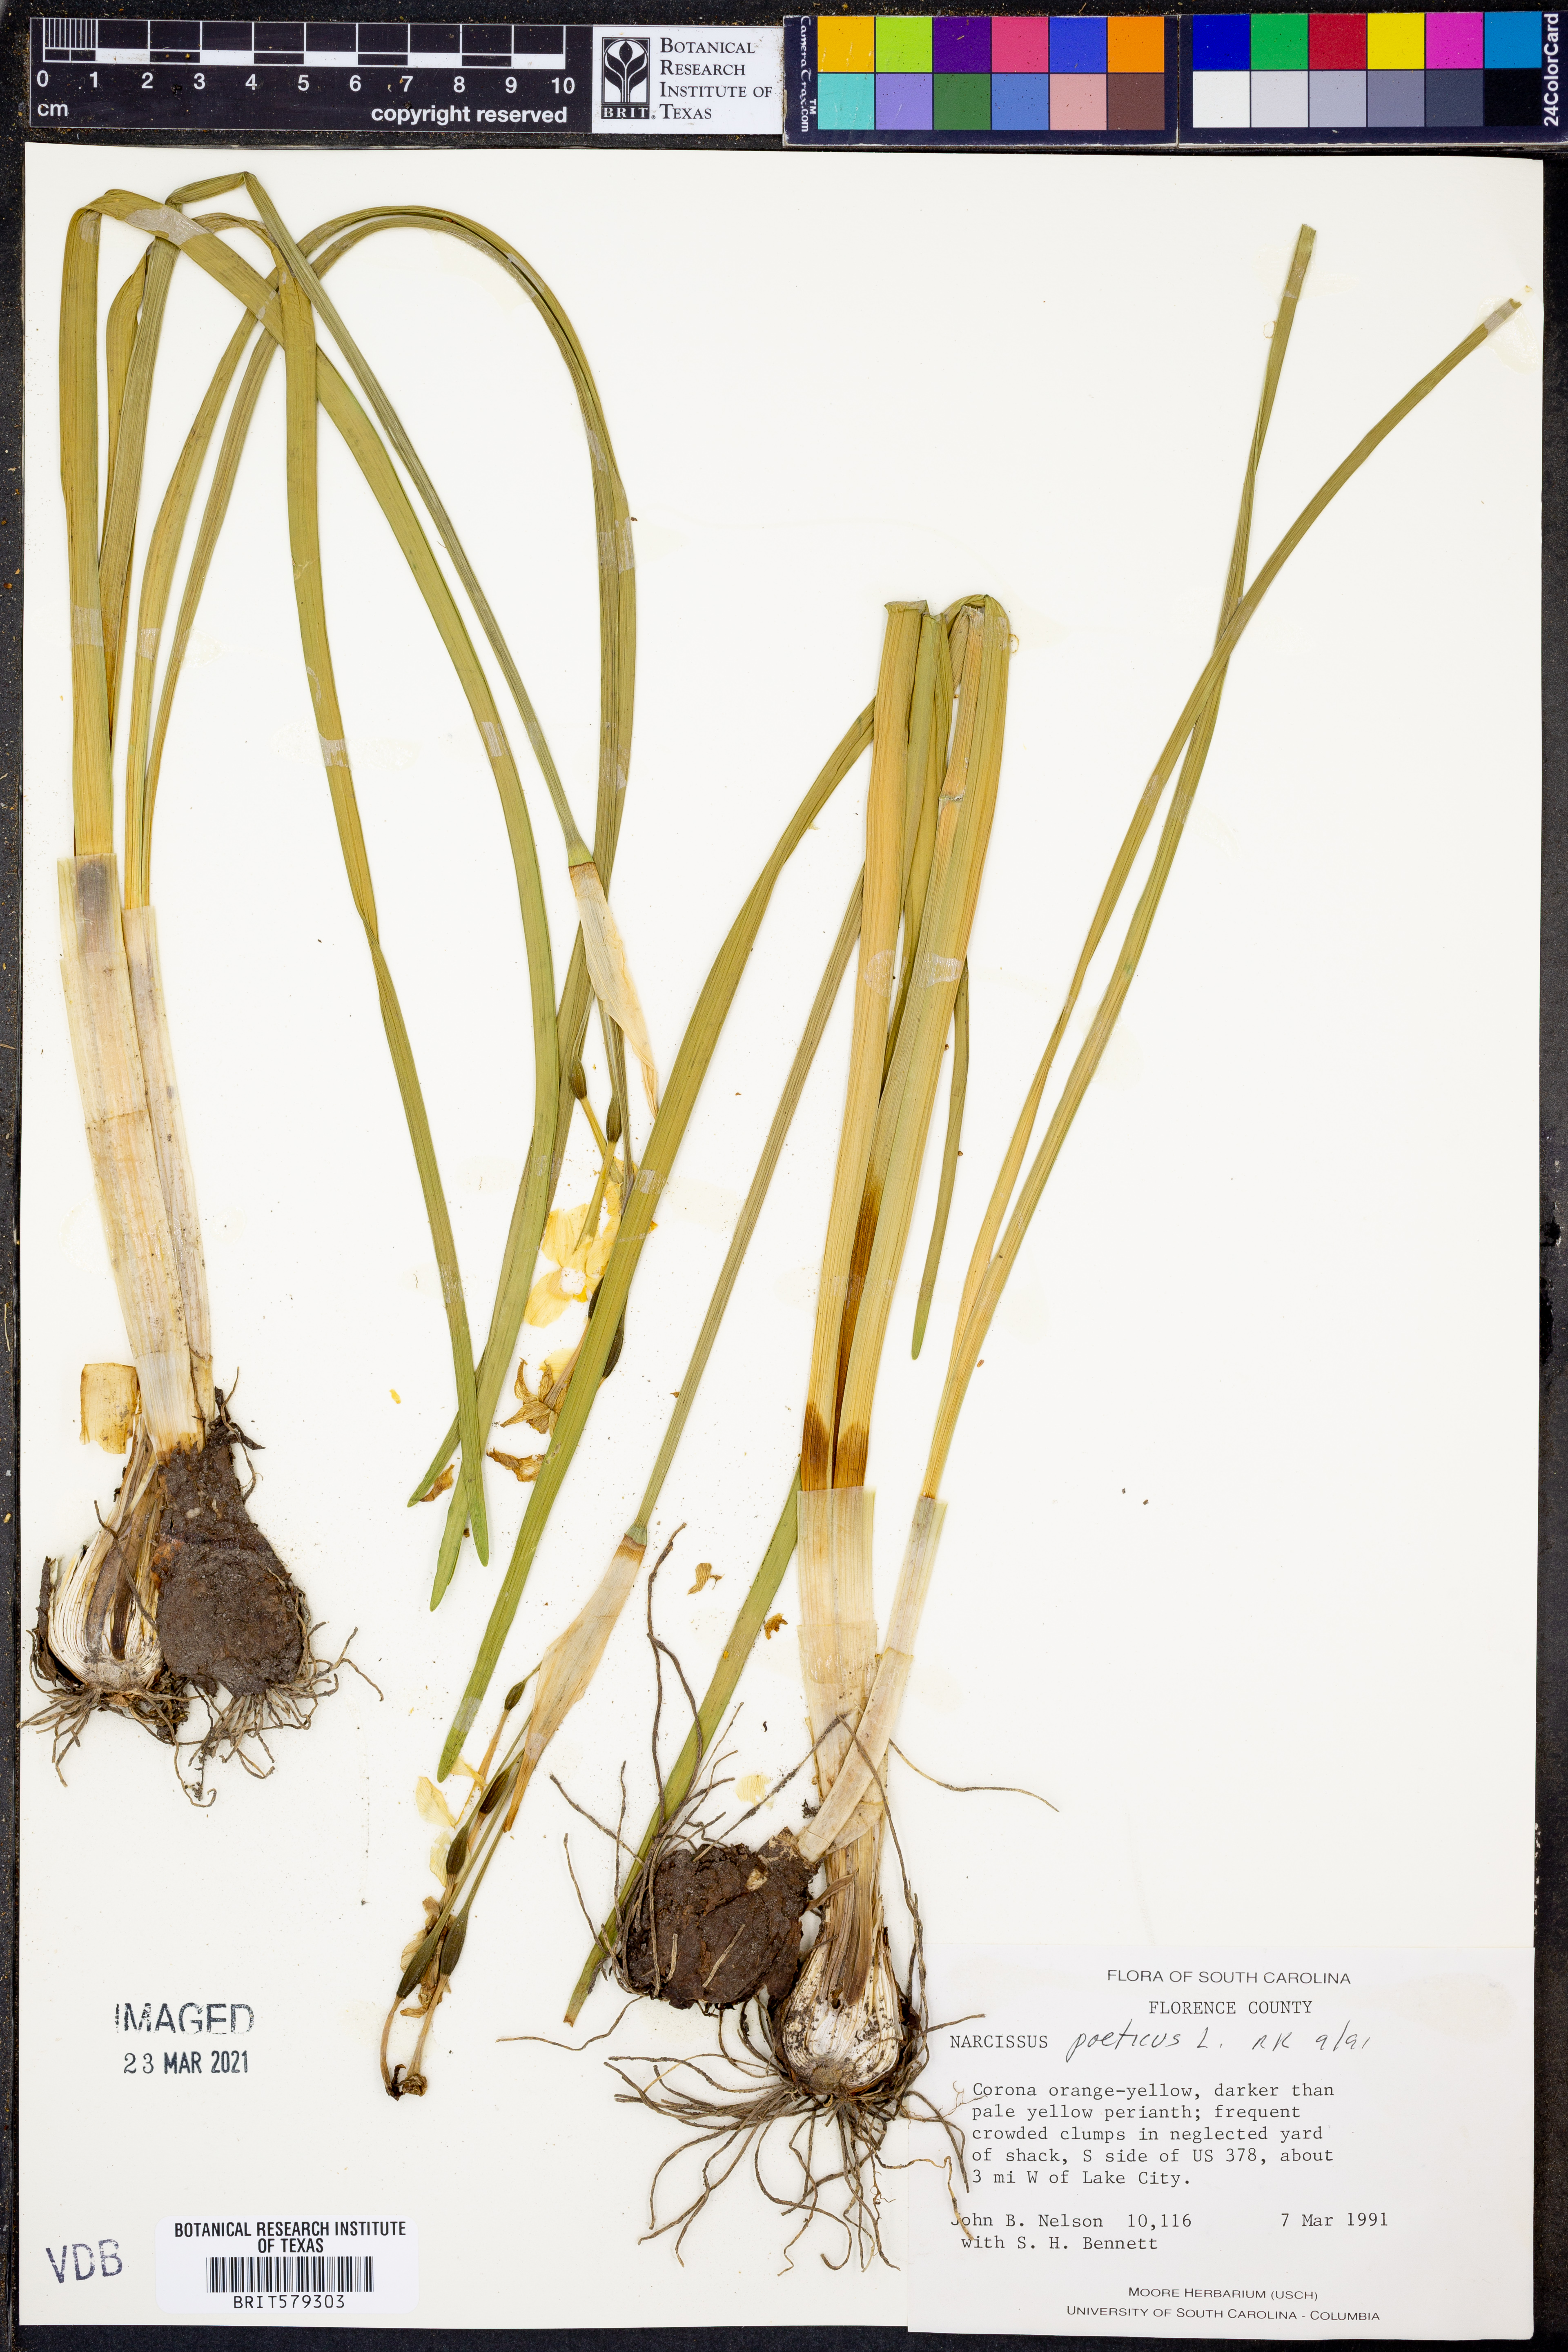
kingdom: Plantae
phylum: Tracheophyta
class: Liliopsida
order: Asparagales
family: Amaryllidaceae
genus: Narcissus
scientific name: Narcissus poeticus
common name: Pheasant's-eye daffodil
